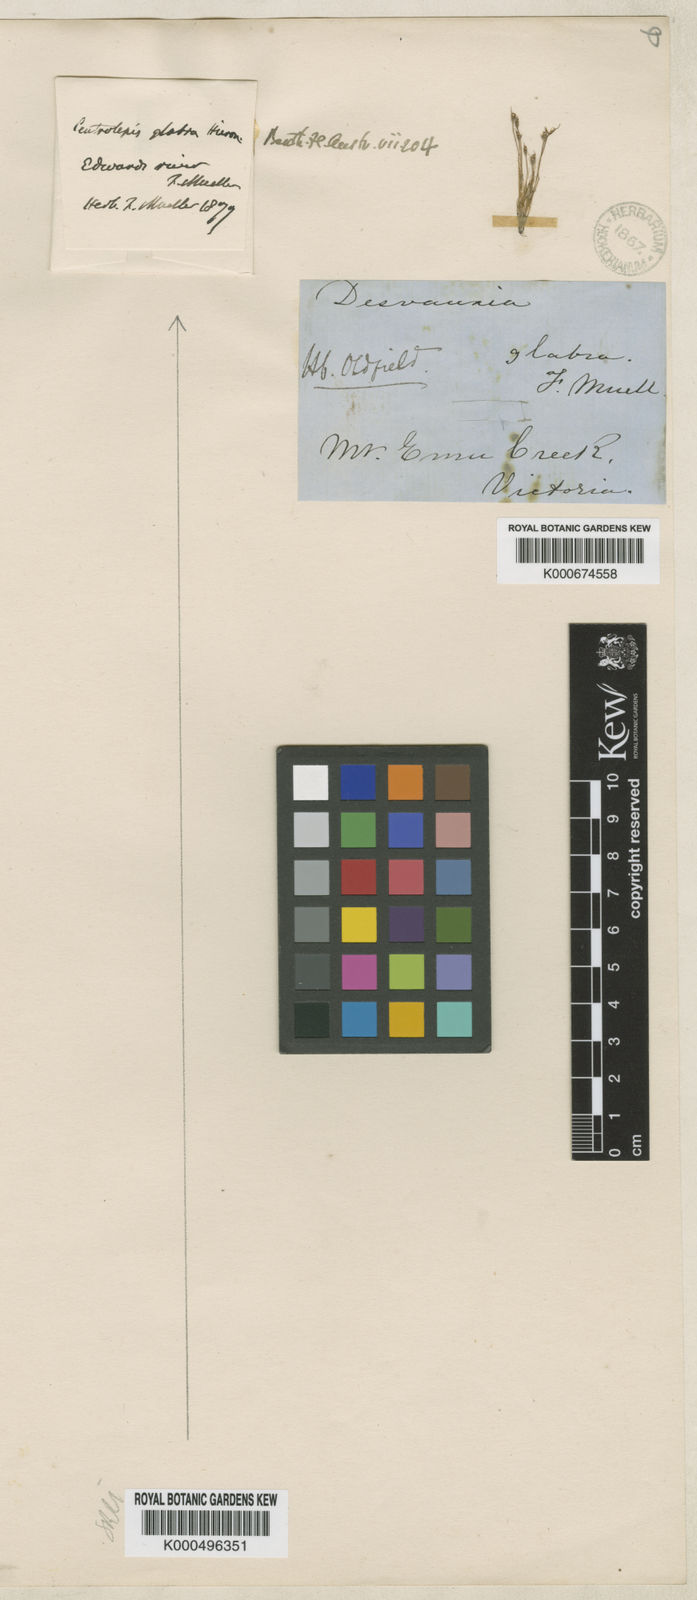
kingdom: Plantae
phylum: Tracheophyta
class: Liliopsida
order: Poales
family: Restionaceae
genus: Centrolepis
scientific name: Centrolepis glabra
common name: Smooth centrolepis
